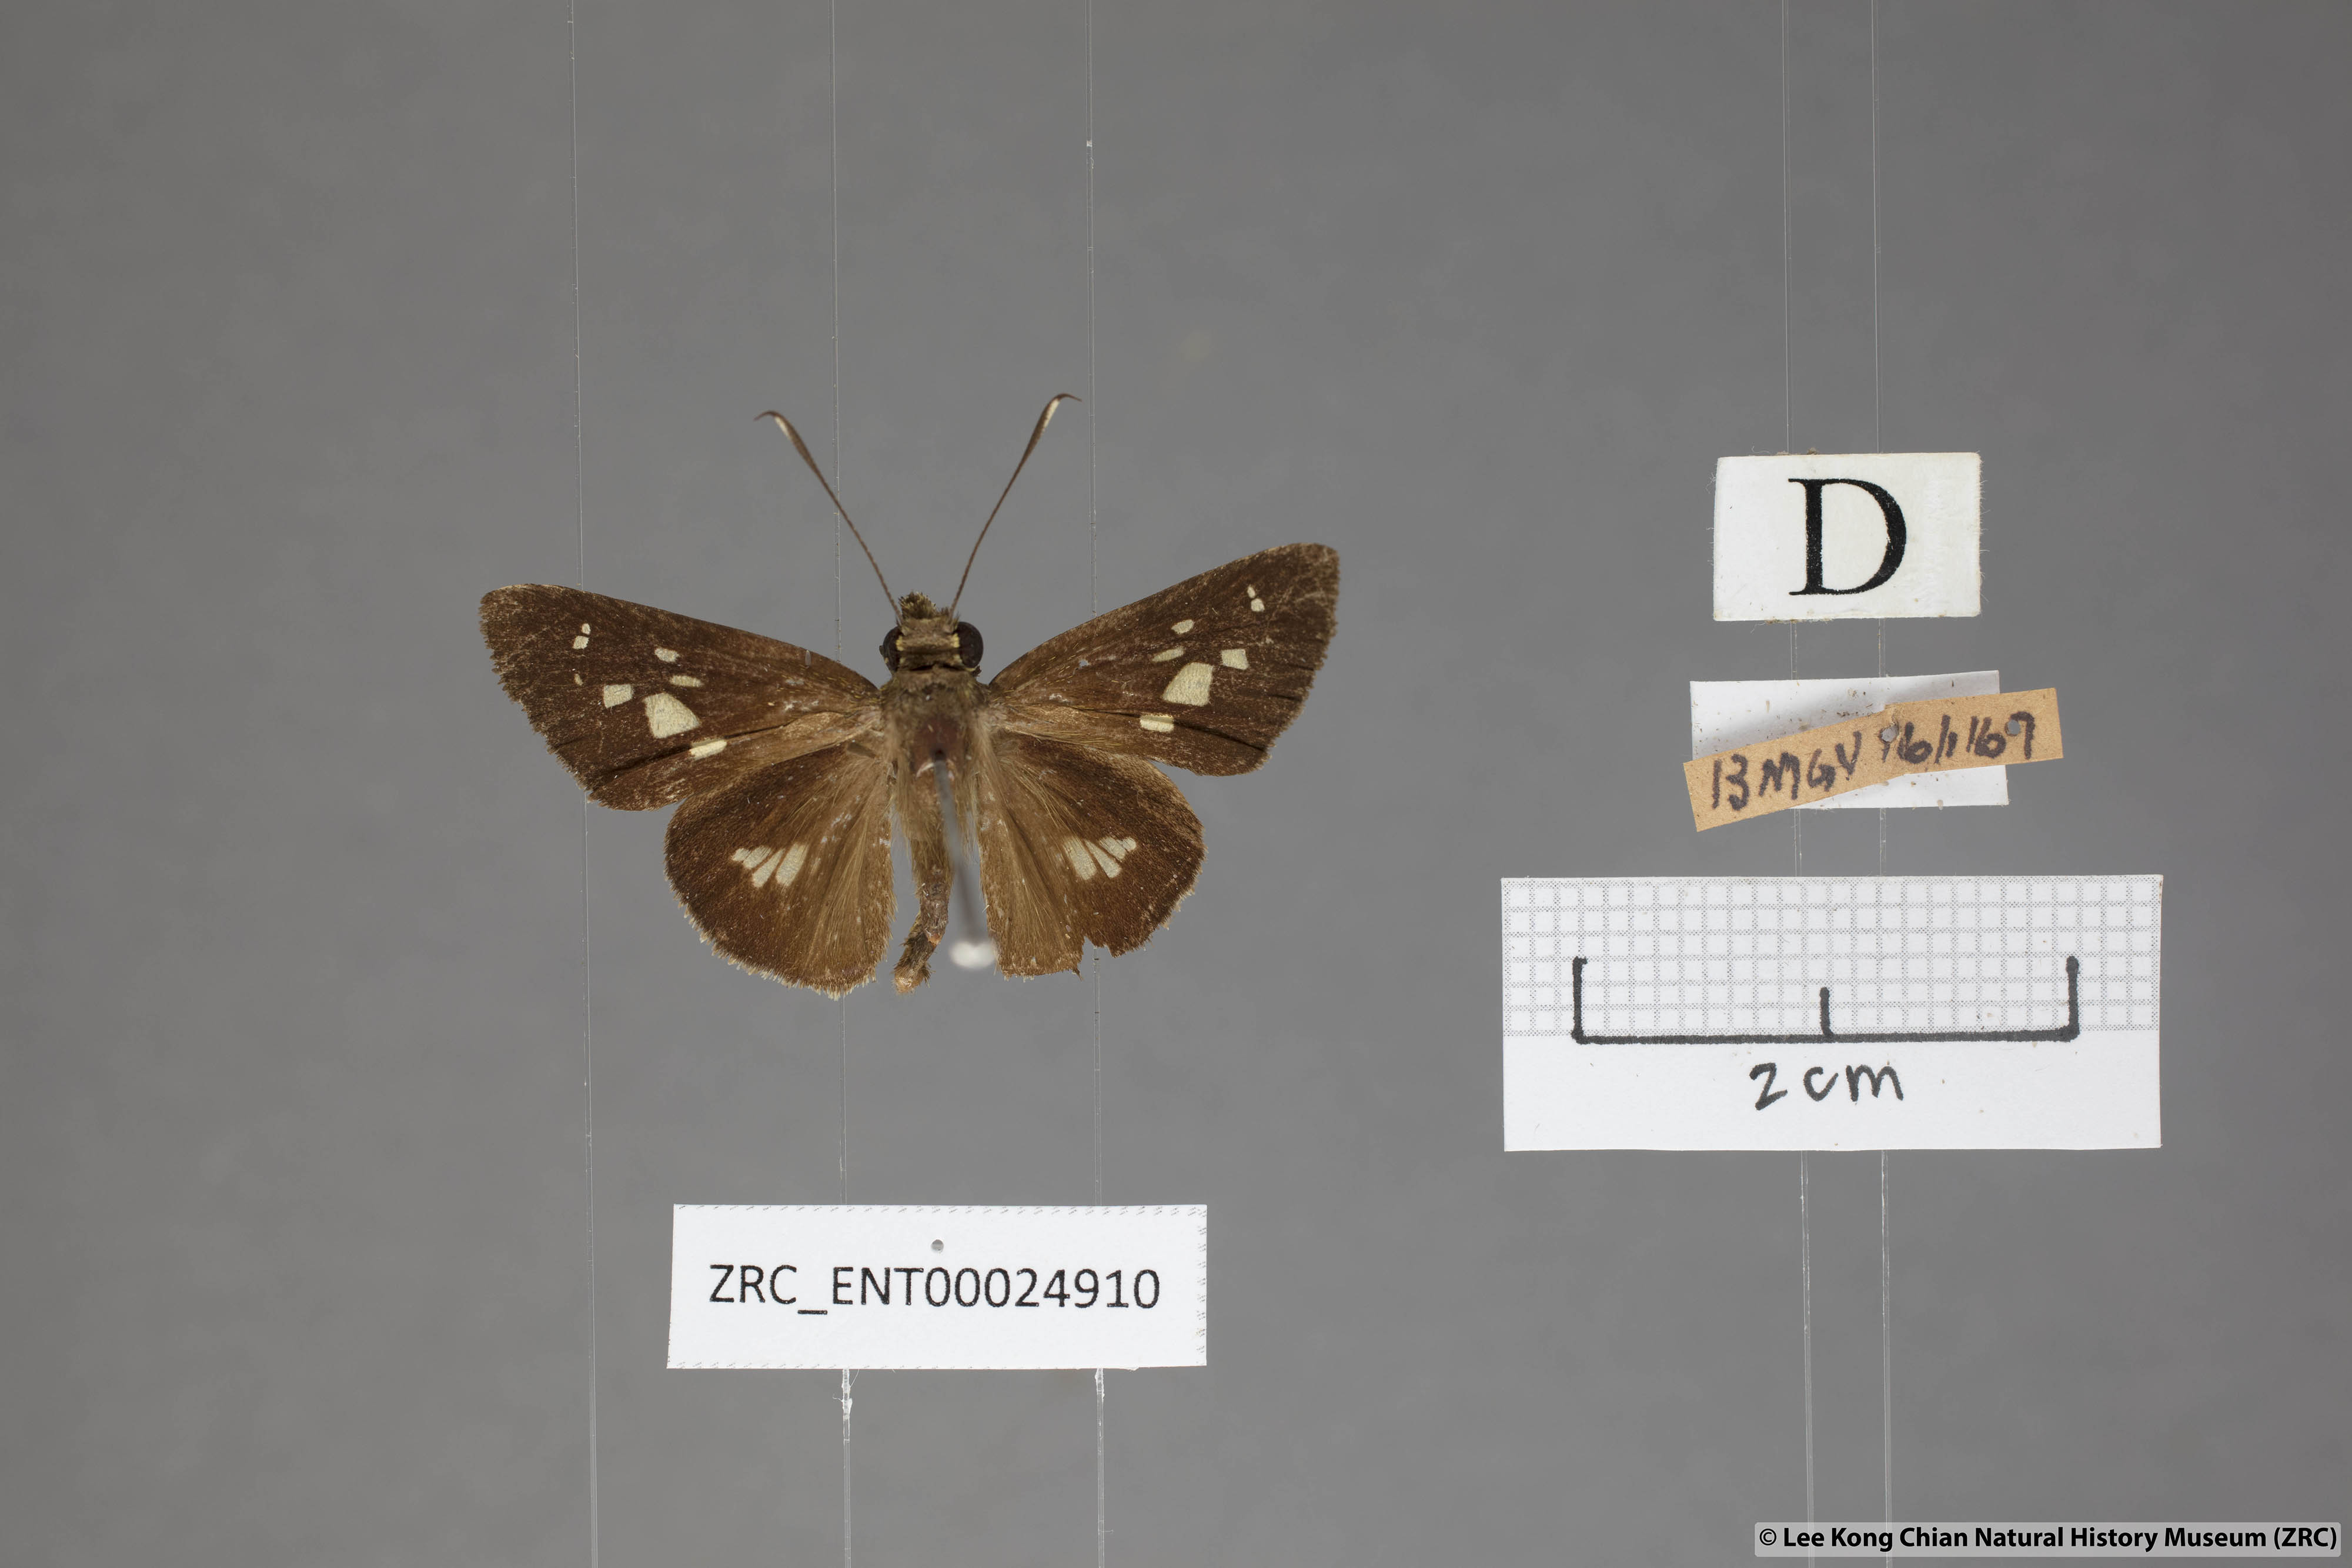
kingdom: Animalia
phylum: Arthropoda
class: Insecta
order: Lepidoptera
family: Hesperiidae
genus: Isma
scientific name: Isma umbrosa
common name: Large long-banded flitter
